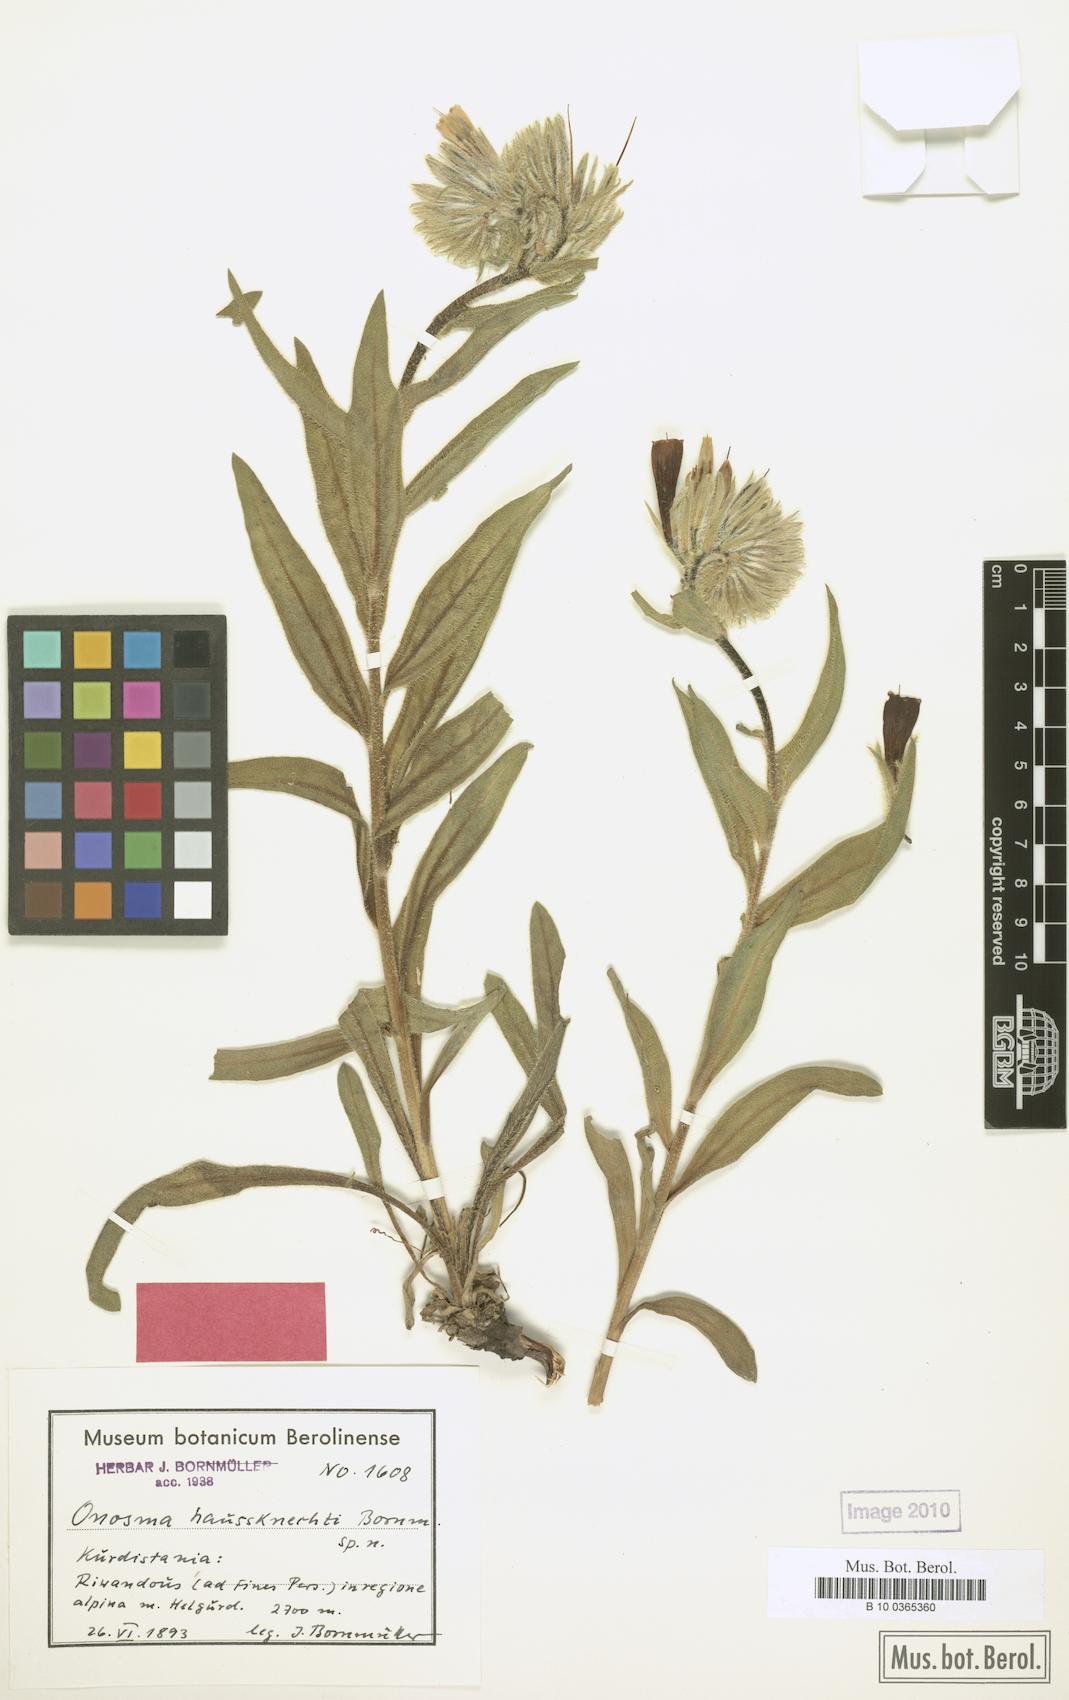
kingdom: Plantae
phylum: Tracheophyta
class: Magnoliopsida
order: Boraginales
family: Boraginaceae
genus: Onosma
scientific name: Onosma haussknechtii
